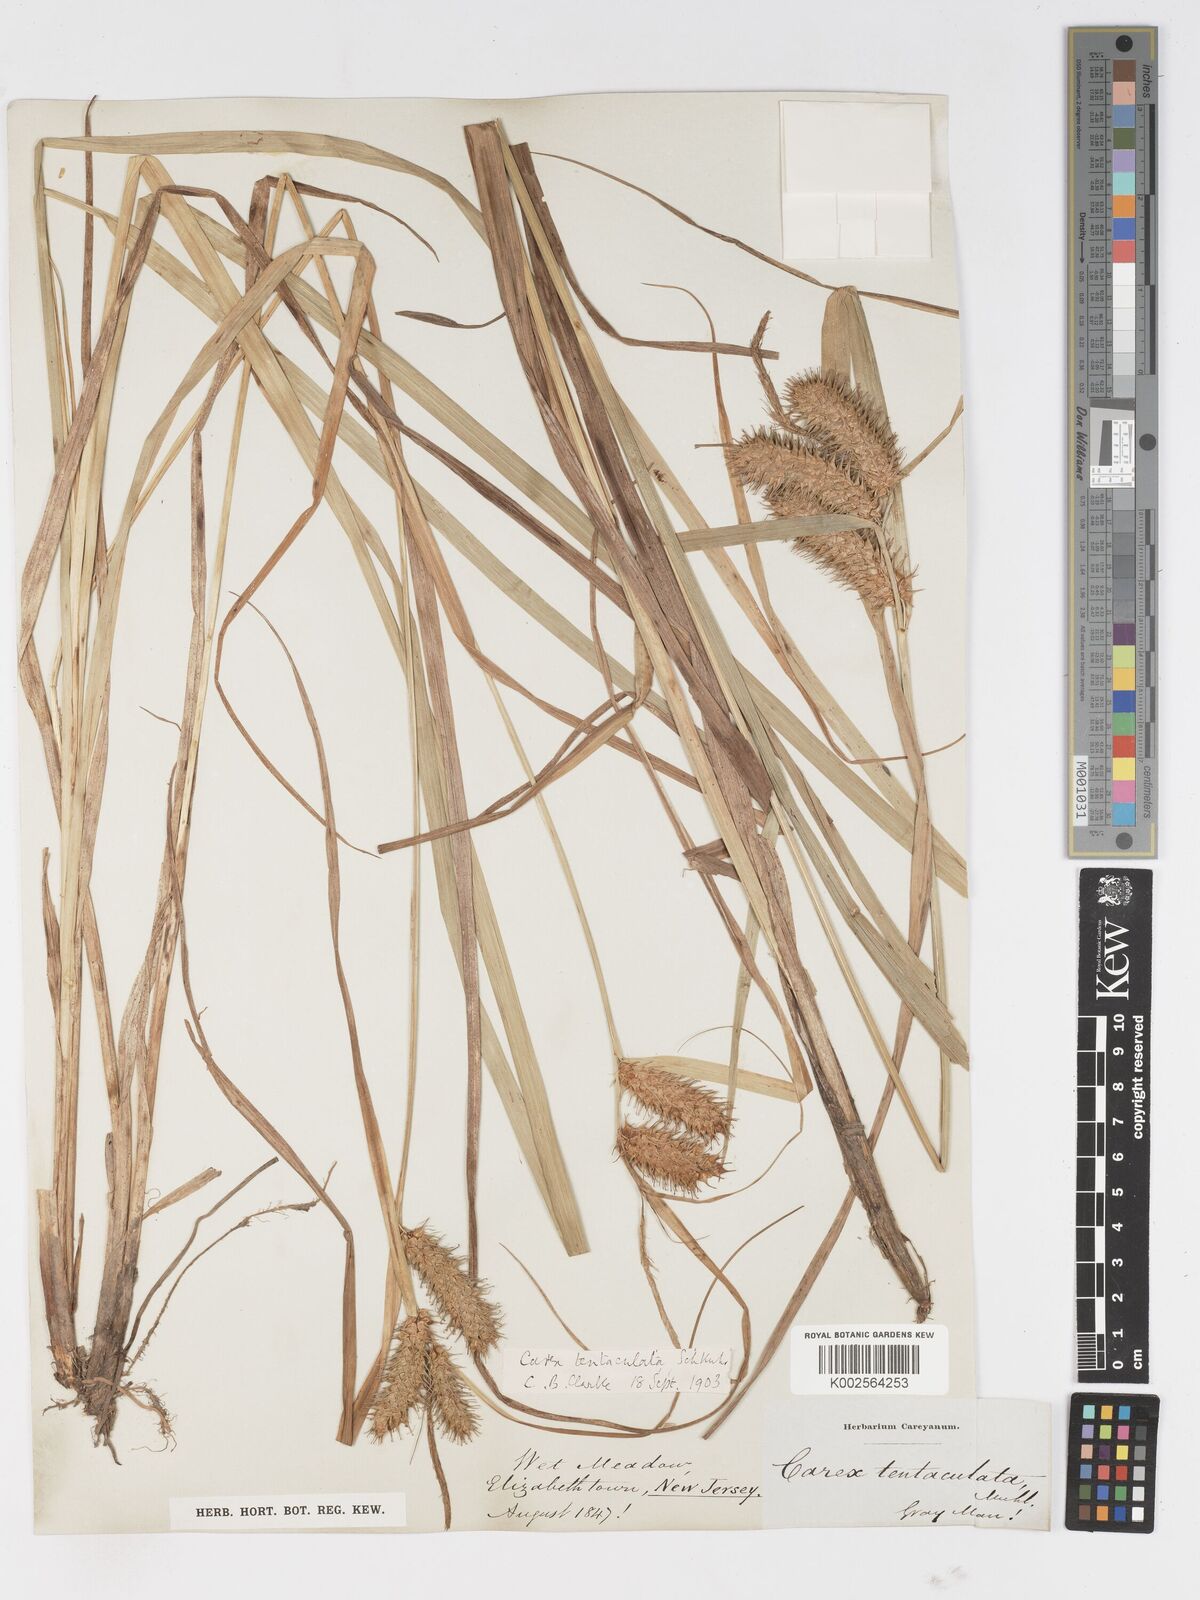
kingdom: Plantae
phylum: Tracheophyta
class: Liliopsida
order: Poales
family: Cyperaceae
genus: Carex
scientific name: Carex lurida
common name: Sallow sedge
